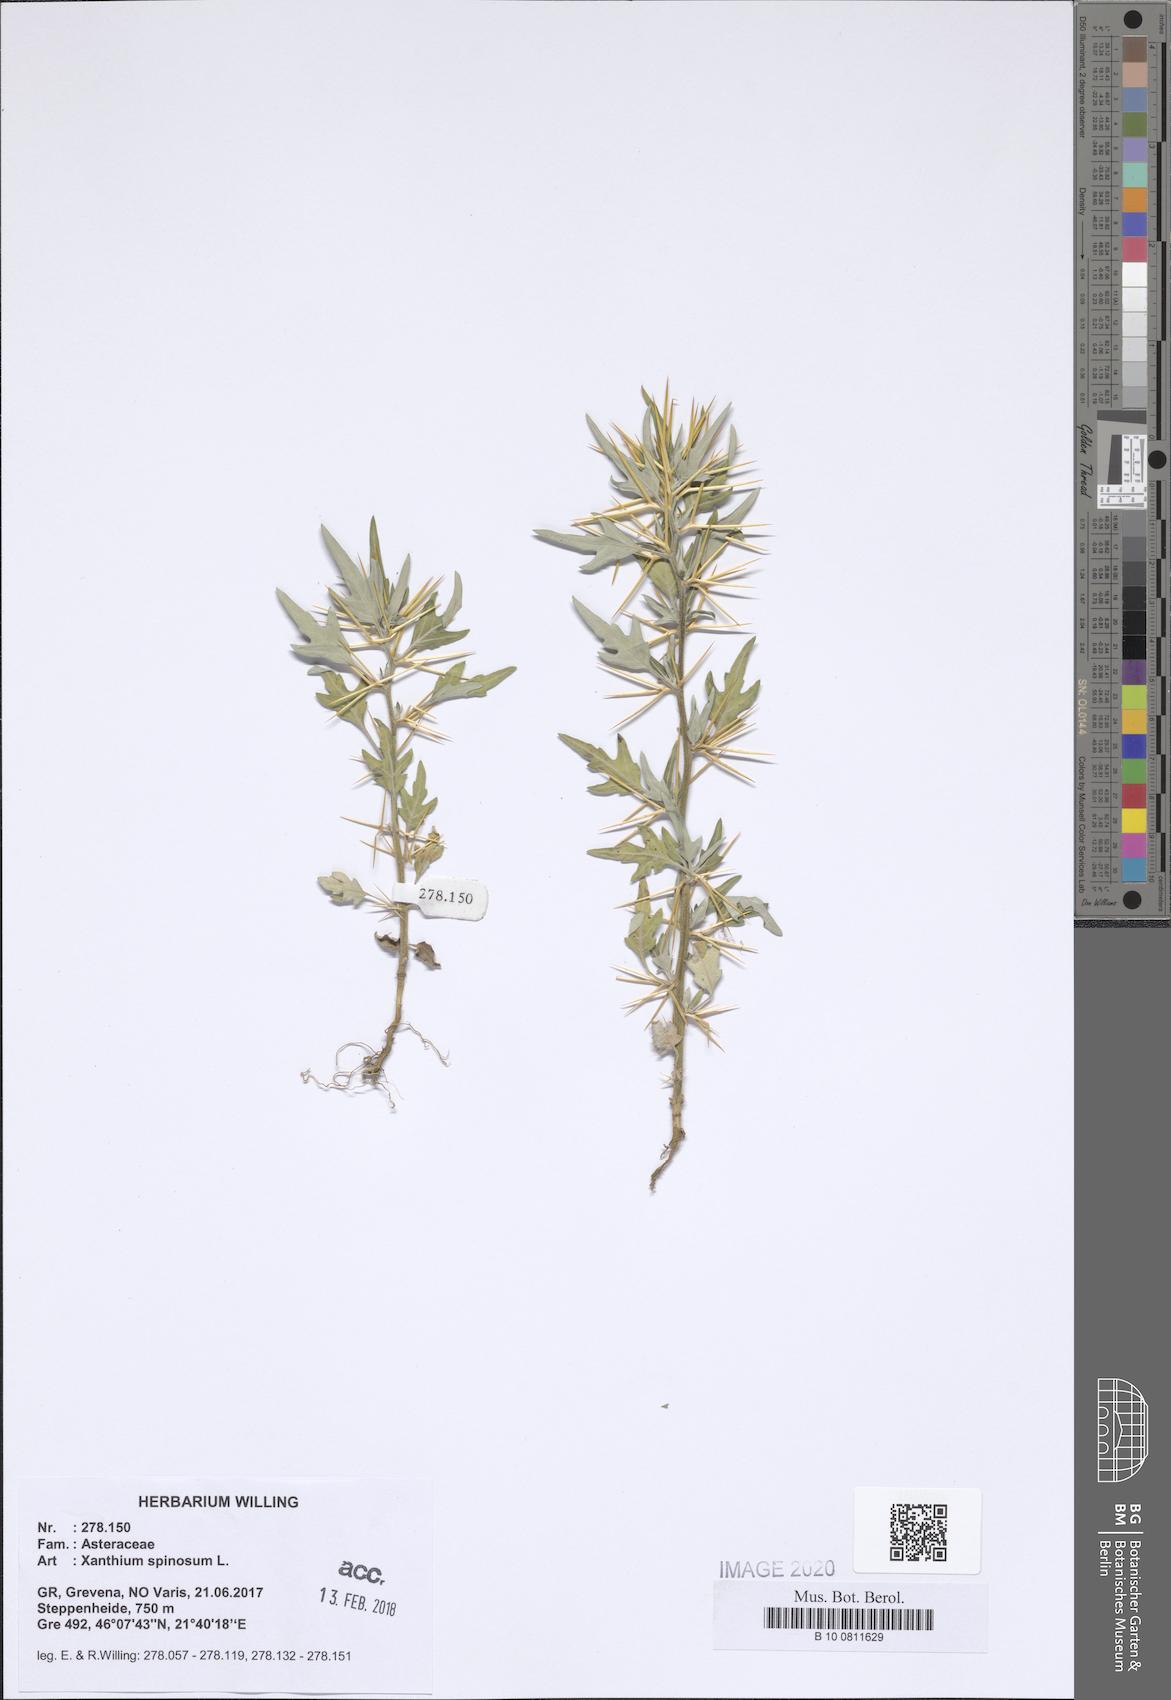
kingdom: Plantae
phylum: Tracheophyta
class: Magnoliopsida
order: Asterales
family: Asteraceae
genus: Xanthium
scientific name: Xanthium spinosum
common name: Spiny cocklebur
